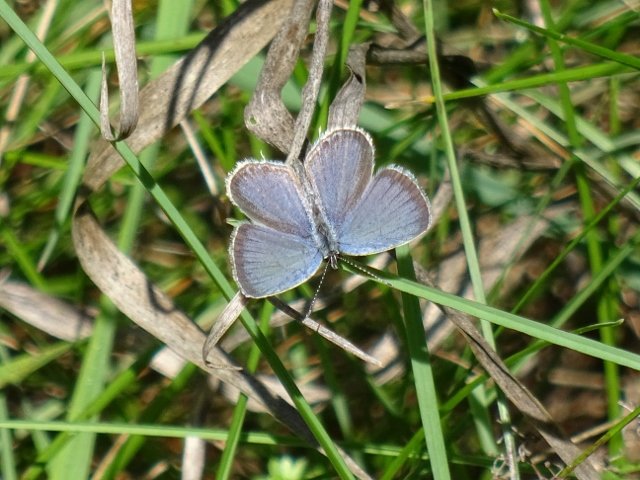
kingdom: Animalia
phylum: Arthropoda
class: Insecta
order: Lepidoptera
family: Lycaenidae
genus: Elkalyce
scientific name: Elkalyce comyntas
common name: Eastern Tailed-Blue
